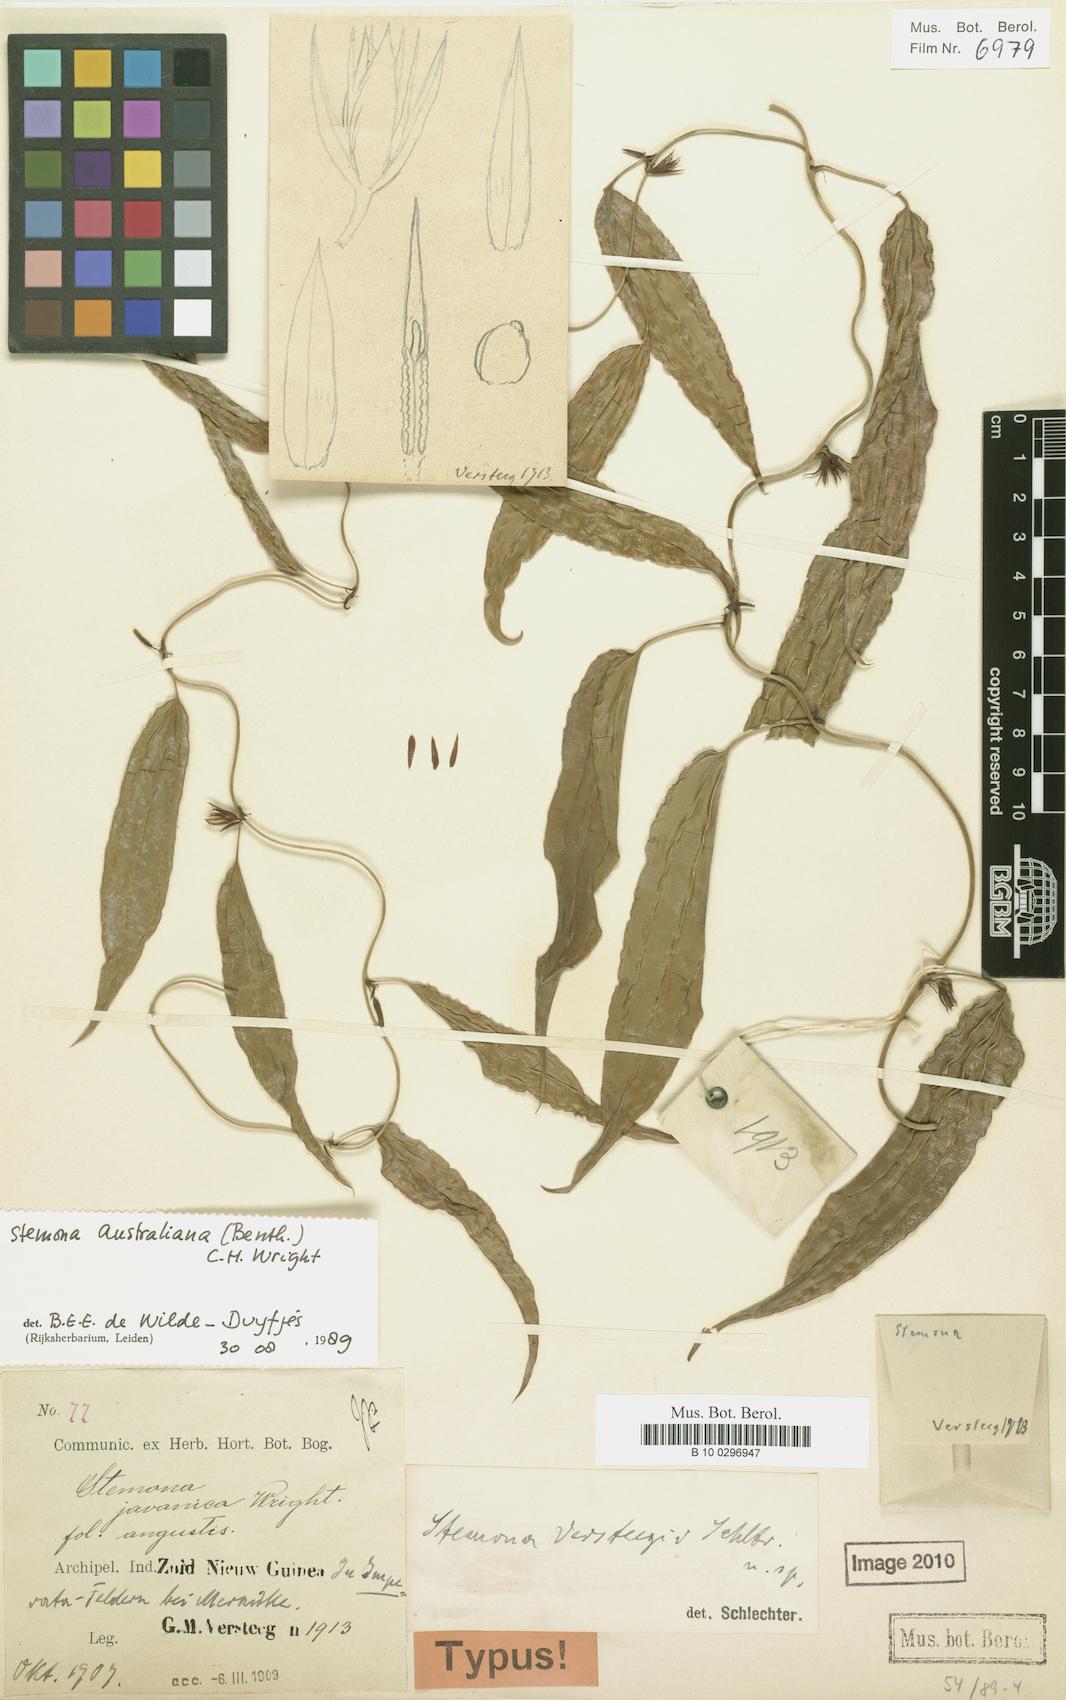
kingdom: Plantae
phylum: Tracheophyta
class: Liliopsida
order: Pandanales
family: Stemonaceae
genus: Stemona
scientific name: Stemona australiana
